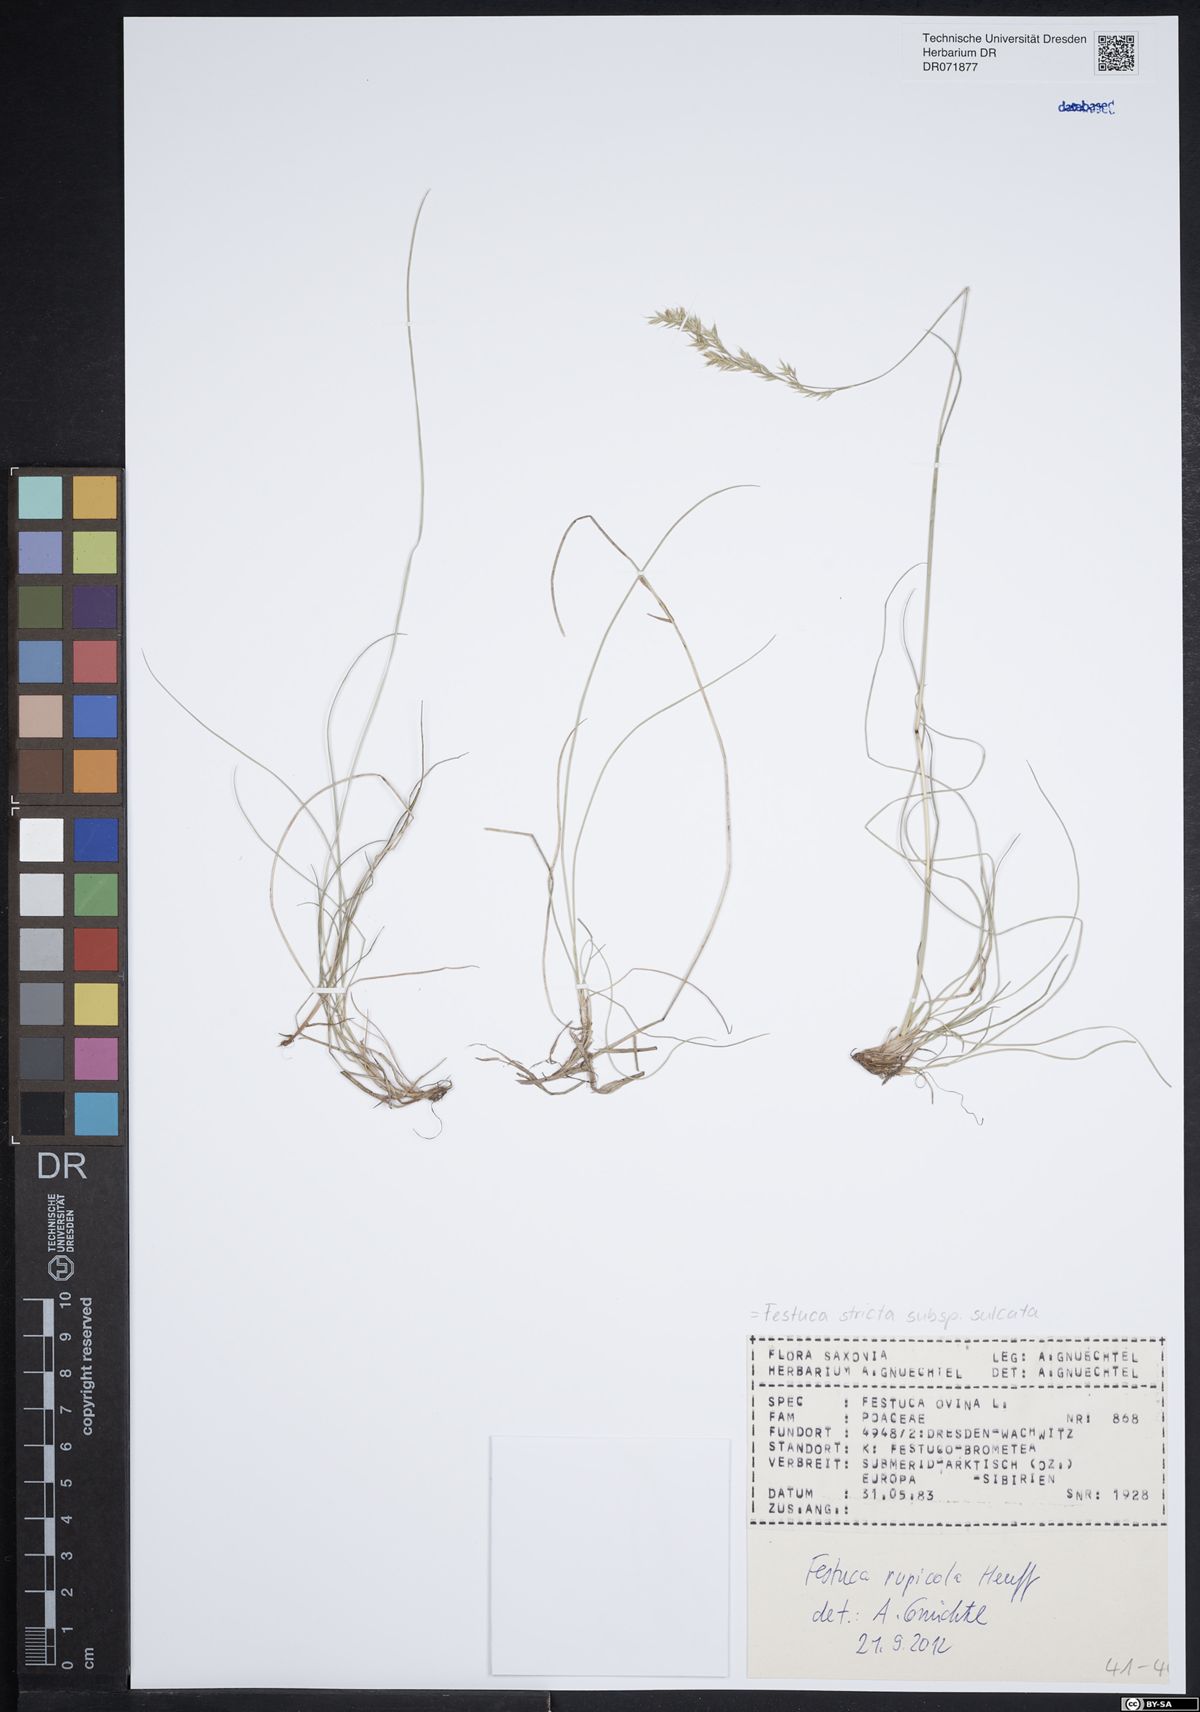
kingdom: Plantae
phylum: Tracheophyta
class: Liliopsida
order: Poales
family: Poaceae
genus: Festuca
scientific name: Festuca rupicola
